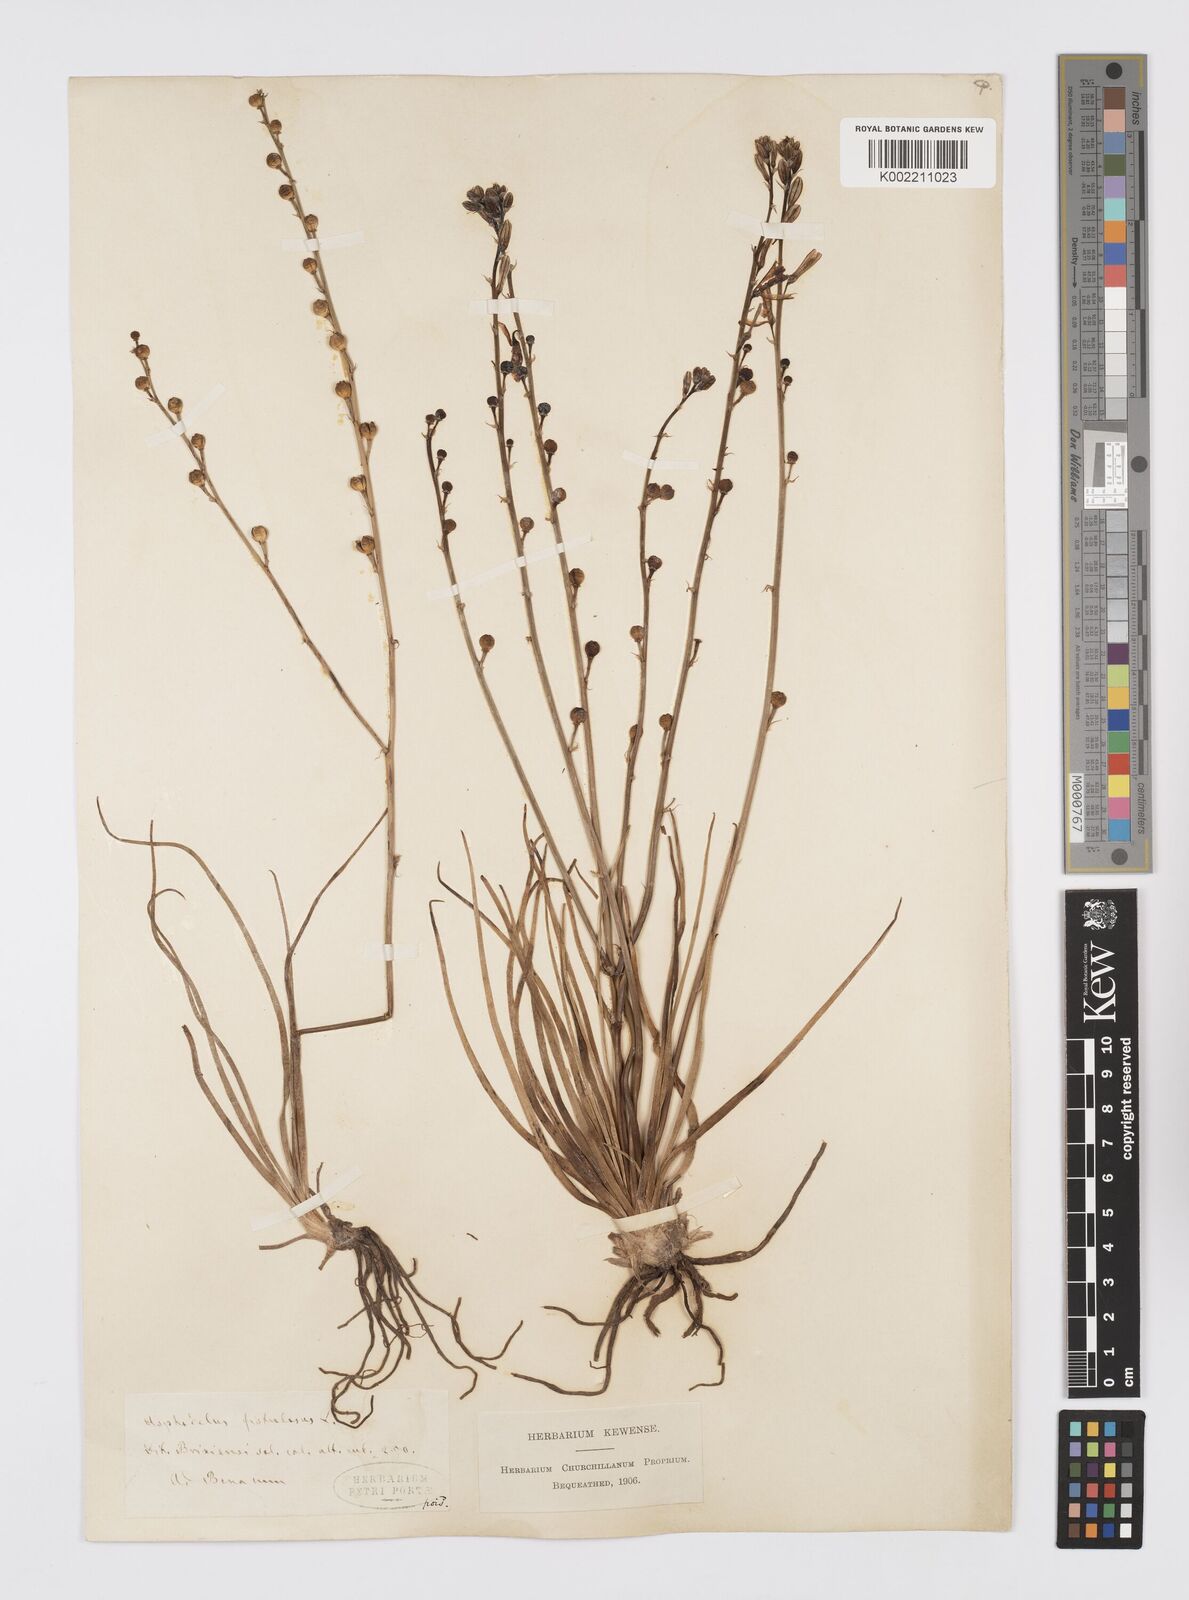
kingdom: Plantae
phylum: Tracheophyta
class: Liliopsida
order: Asparagales
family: Asphodelaceae
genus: Asphodelus
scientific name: Asphodelus fistulosus
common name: Onionweed
